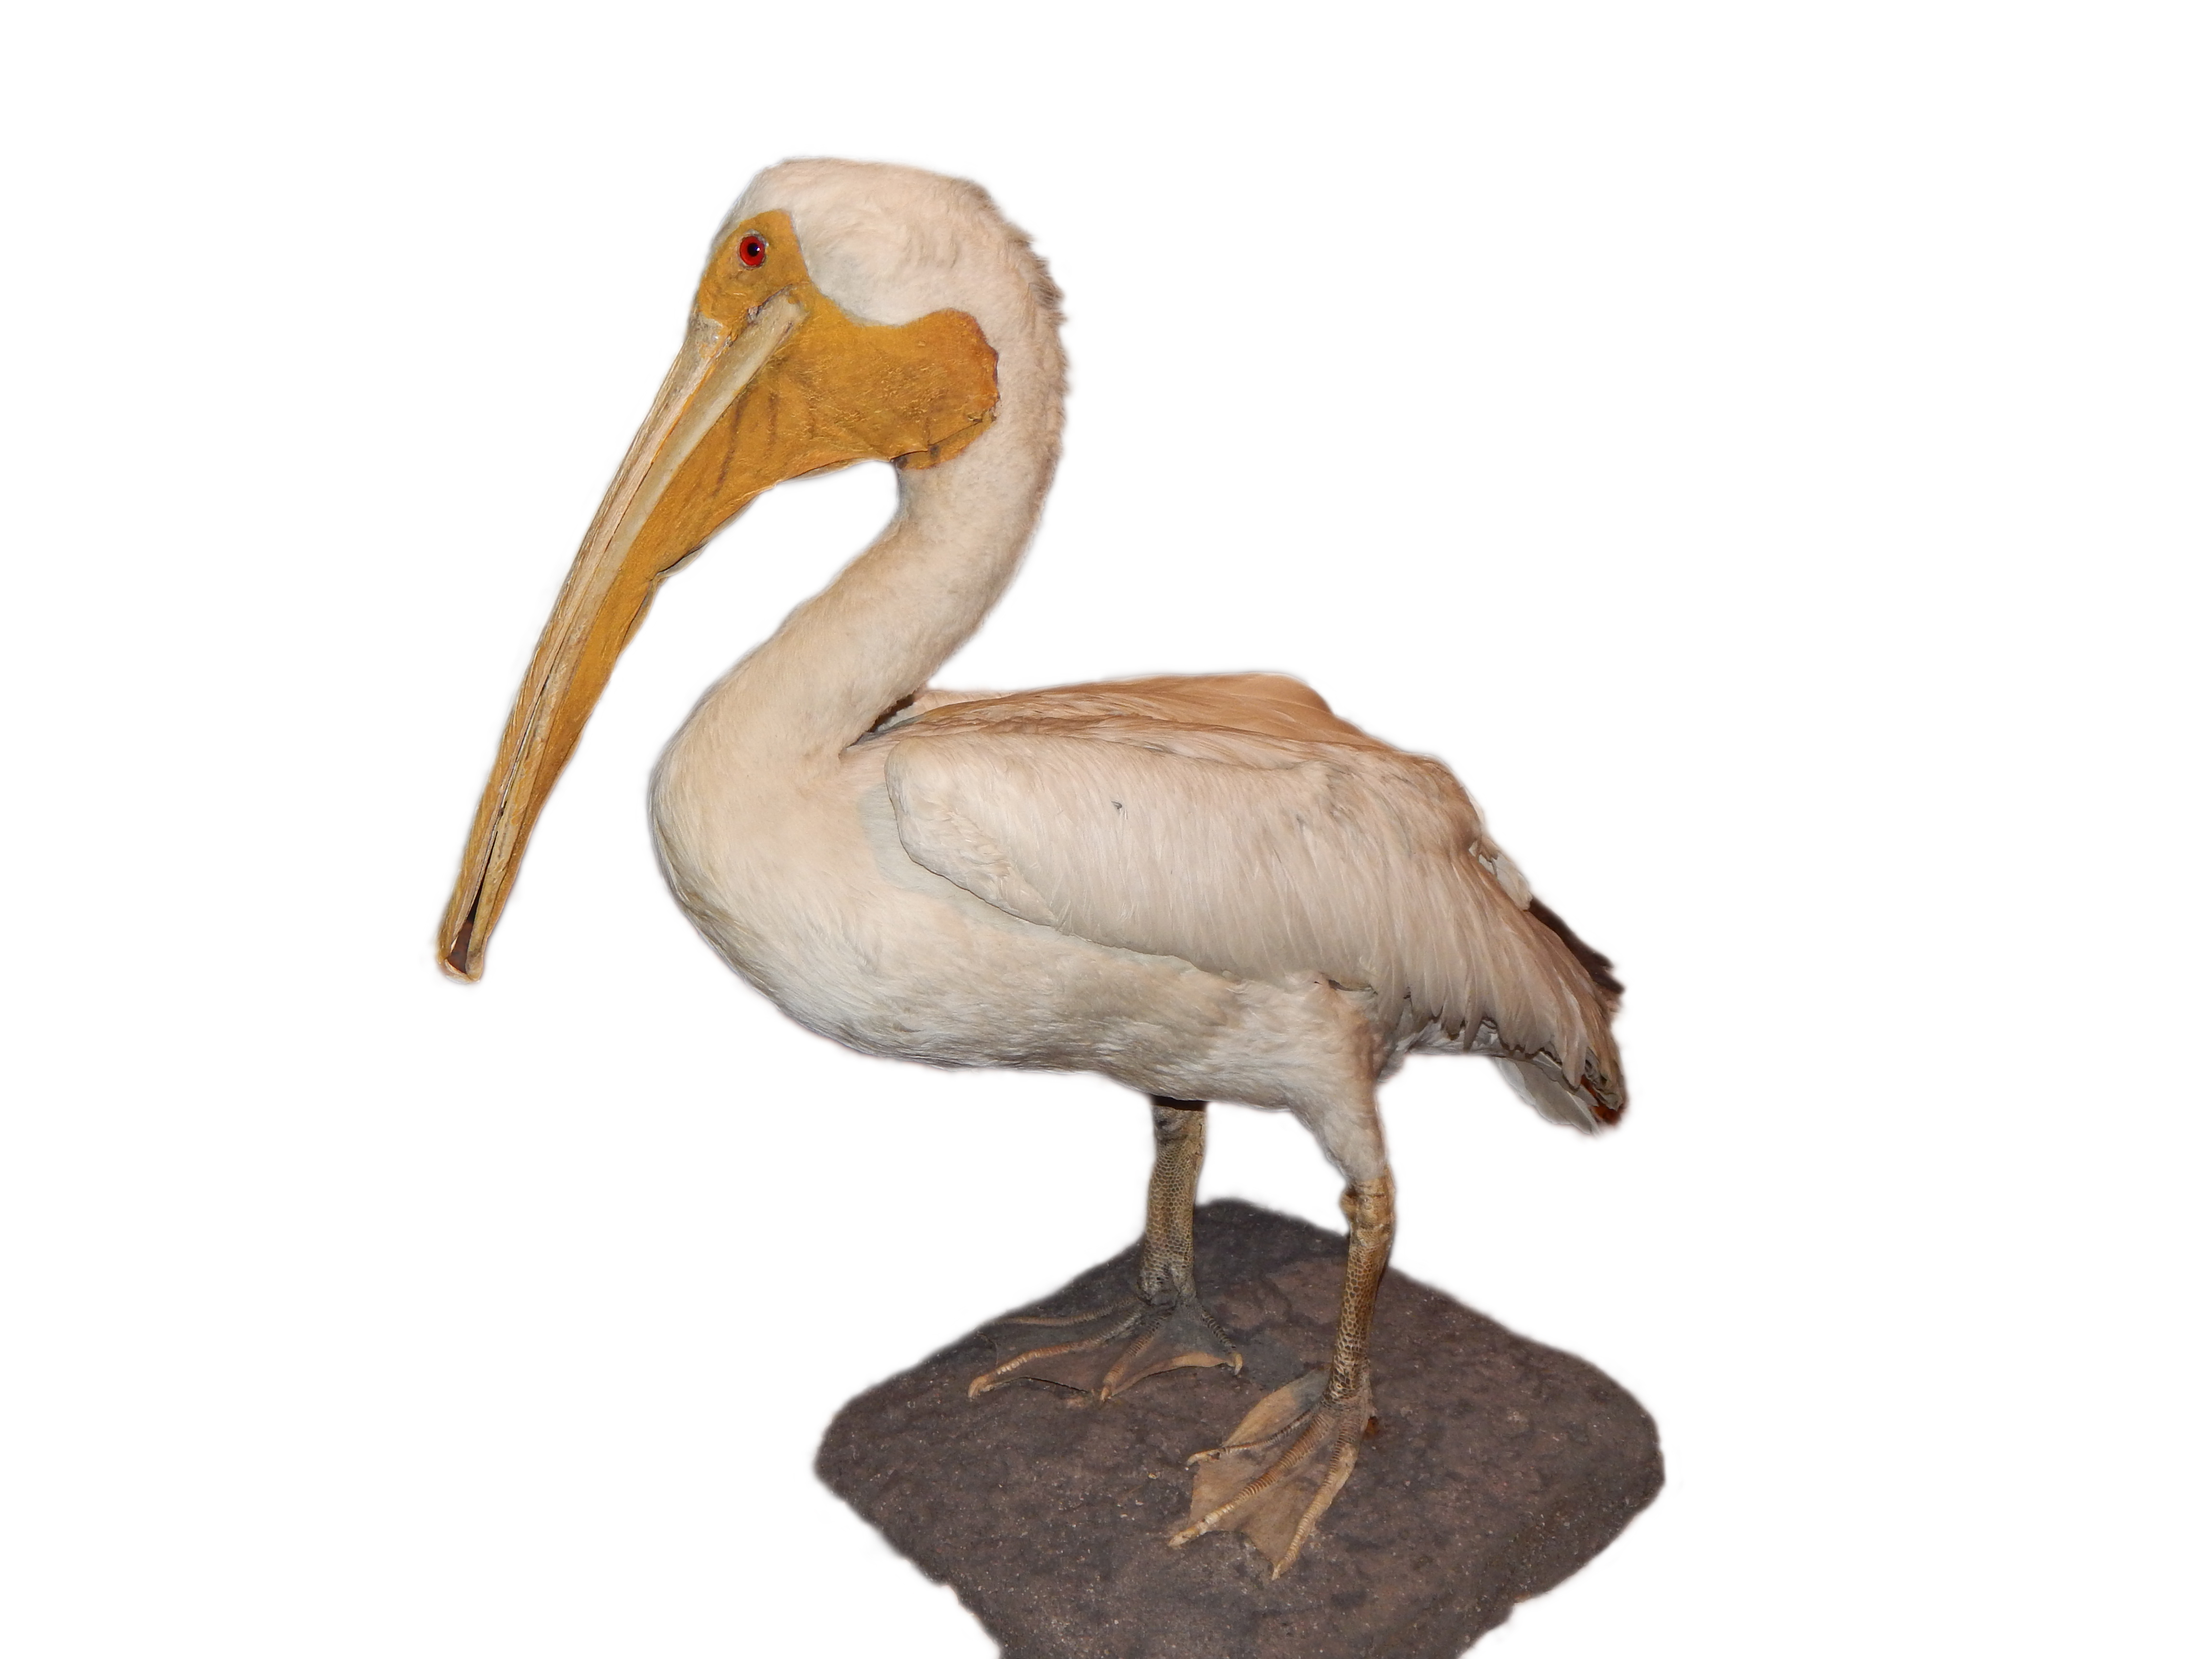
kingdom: Animalia
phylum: Chordata
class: Aves
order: Pelecaniformes
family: Pelecanidae
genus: Pelecanus
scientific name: Pelecanus erythrorhynchos
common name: American white pelican
